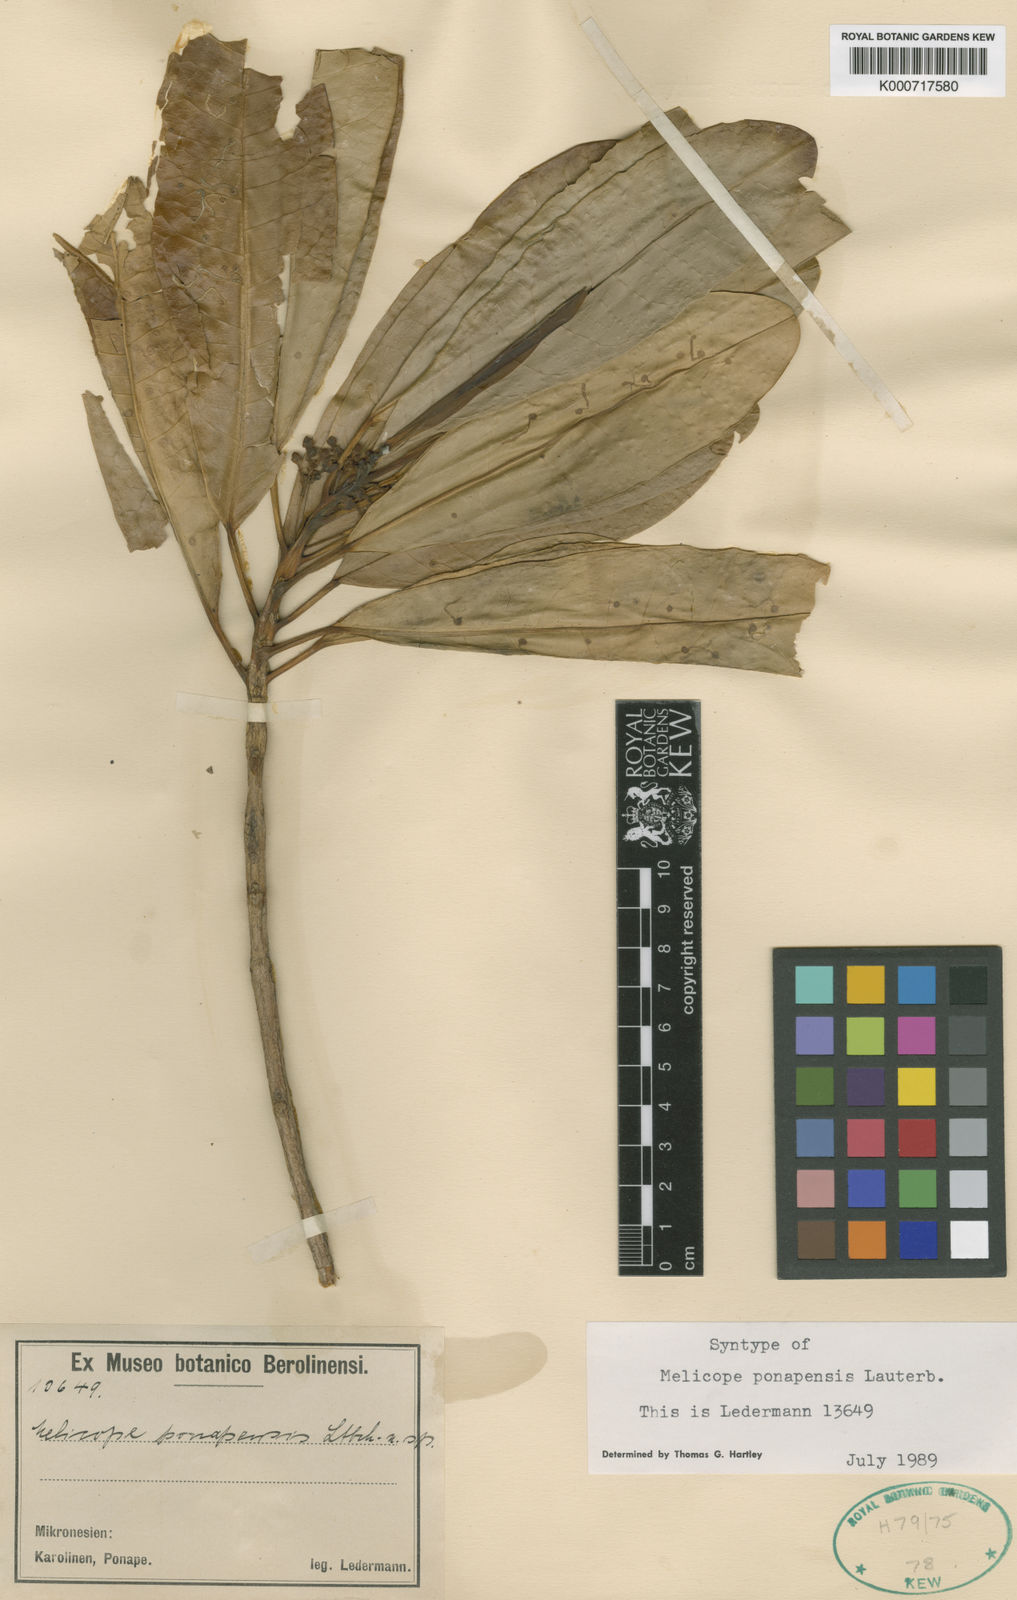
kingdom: Plantae
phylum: Tracheophyta
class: Magnoliopsida
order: Sapindales
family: Rutaceae
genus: Melicope
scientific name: Melicope ponapensis
